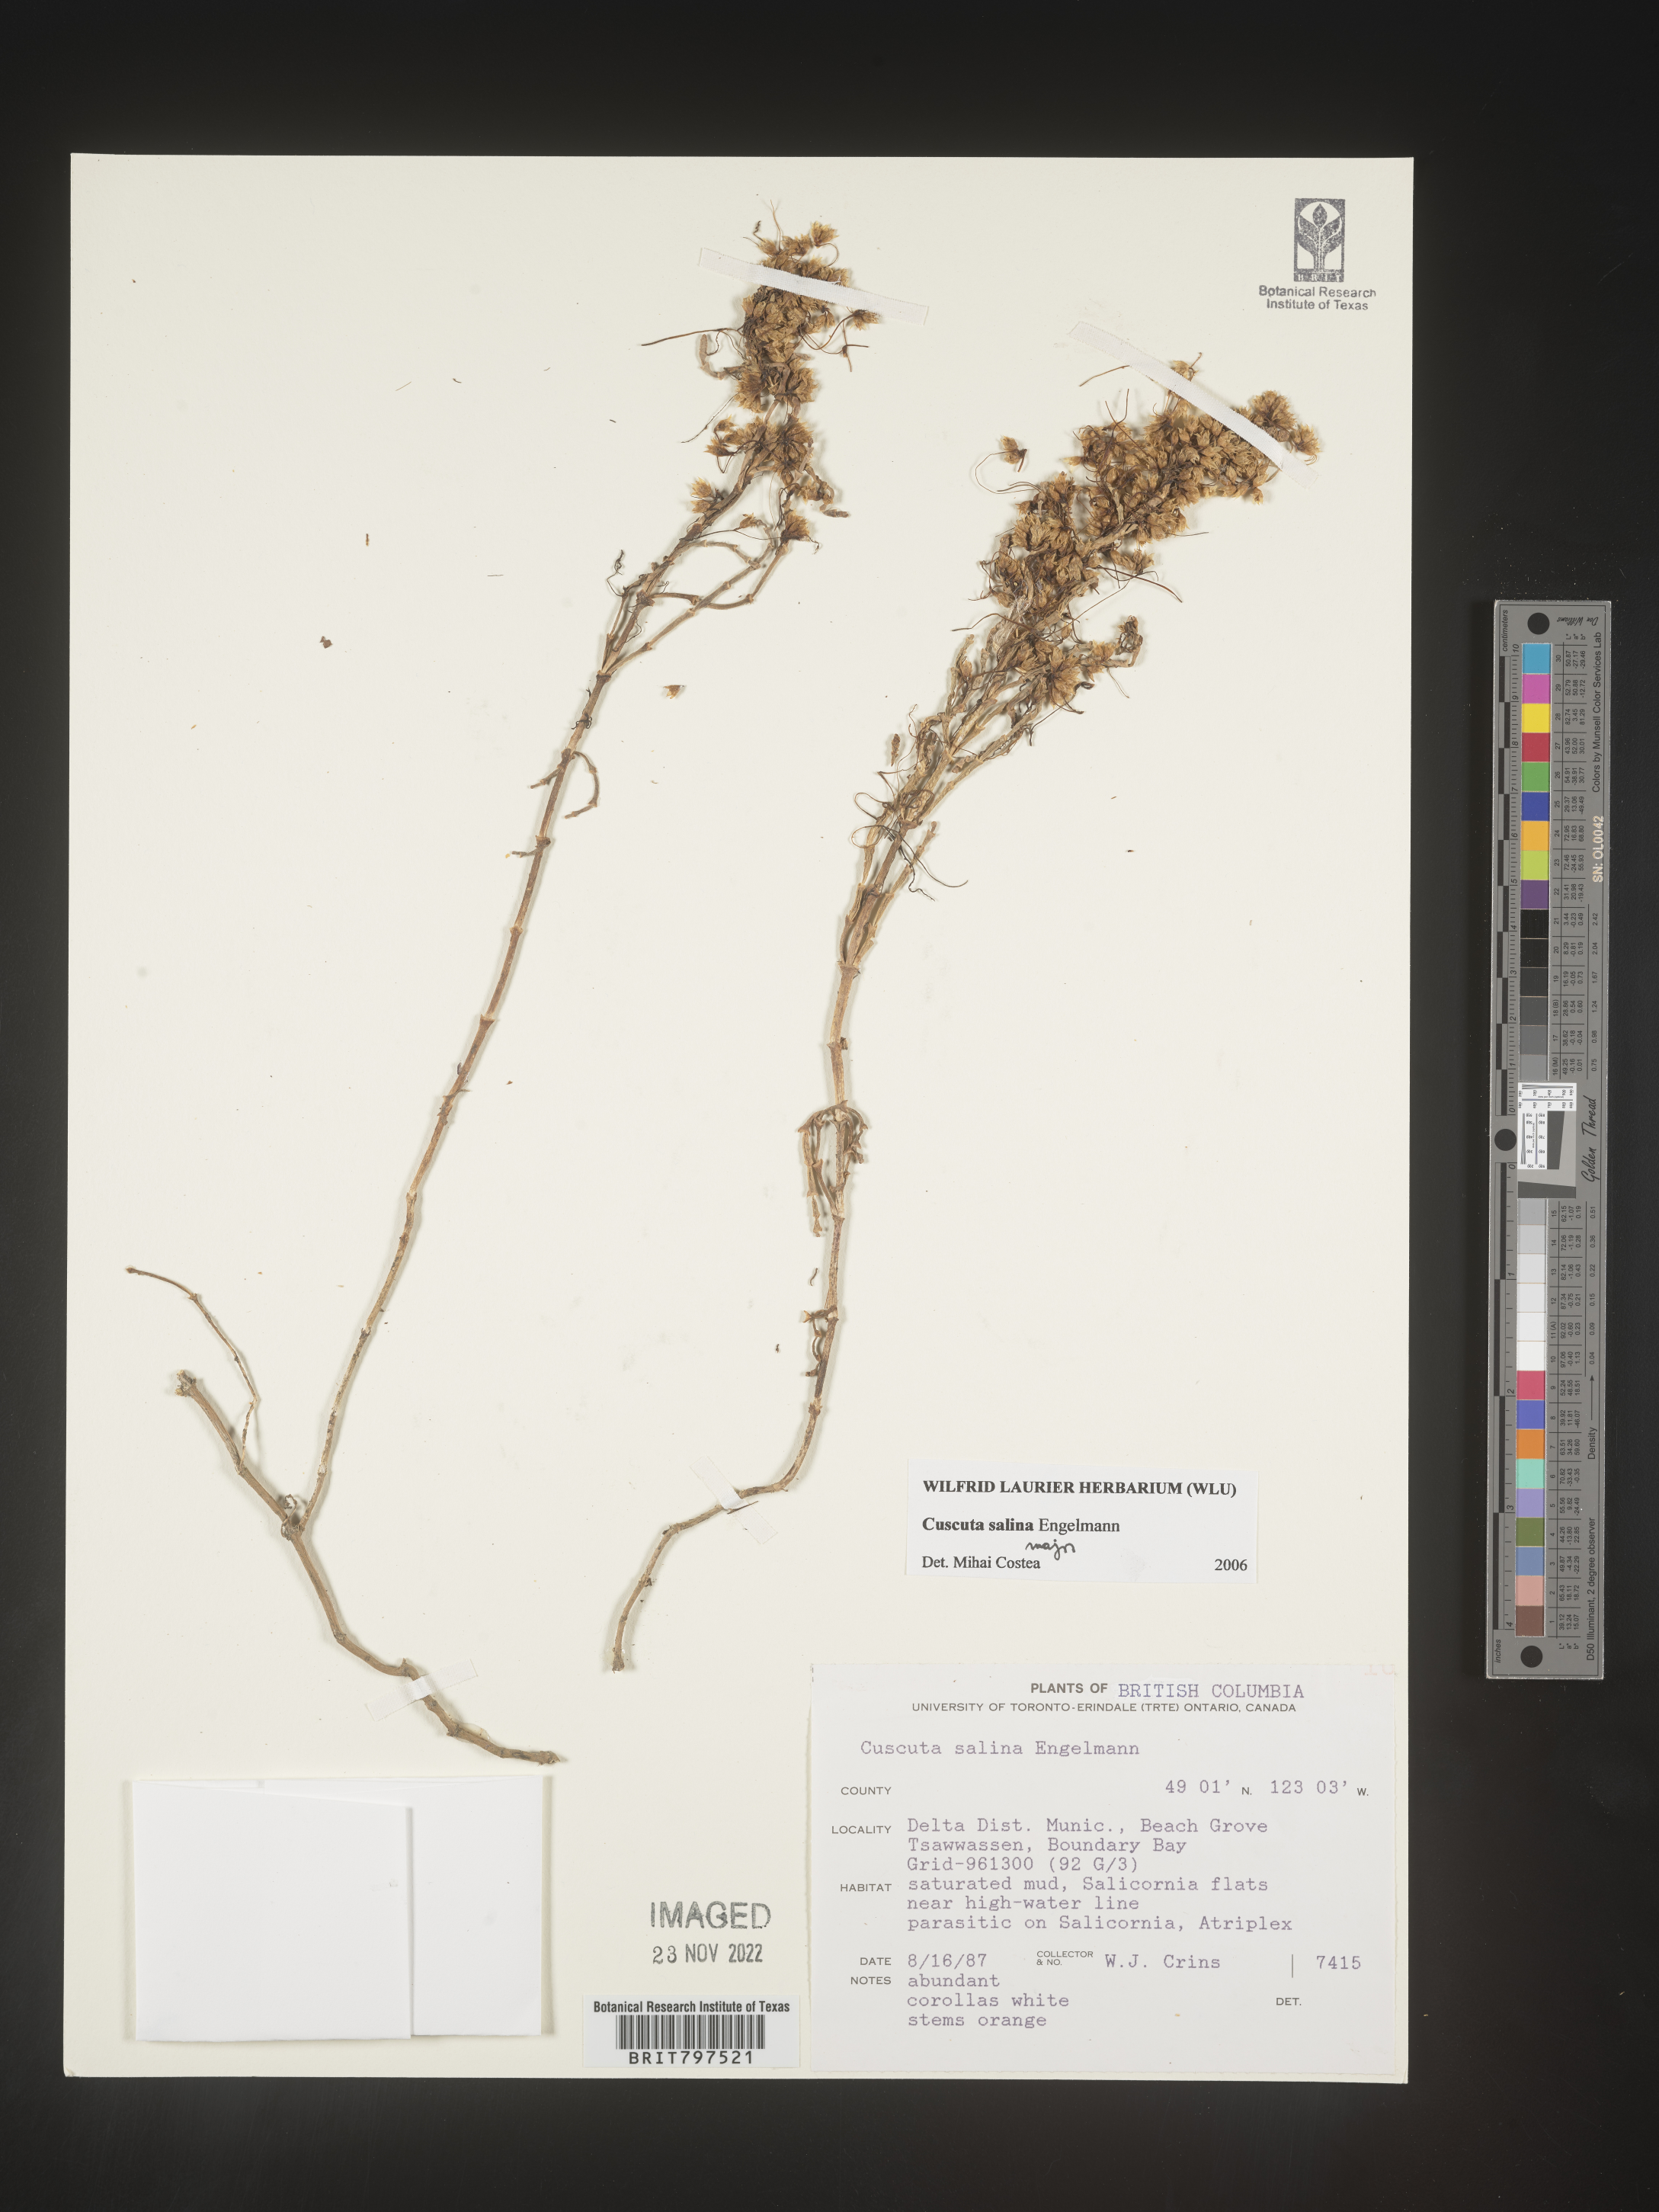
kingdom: Plantae
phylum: Tracheophyta
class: Magnoliopsida
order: Solanales
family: Convolvulaceae
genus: Cuscuta
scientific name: Cuscuta salina
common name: Goldenthread
